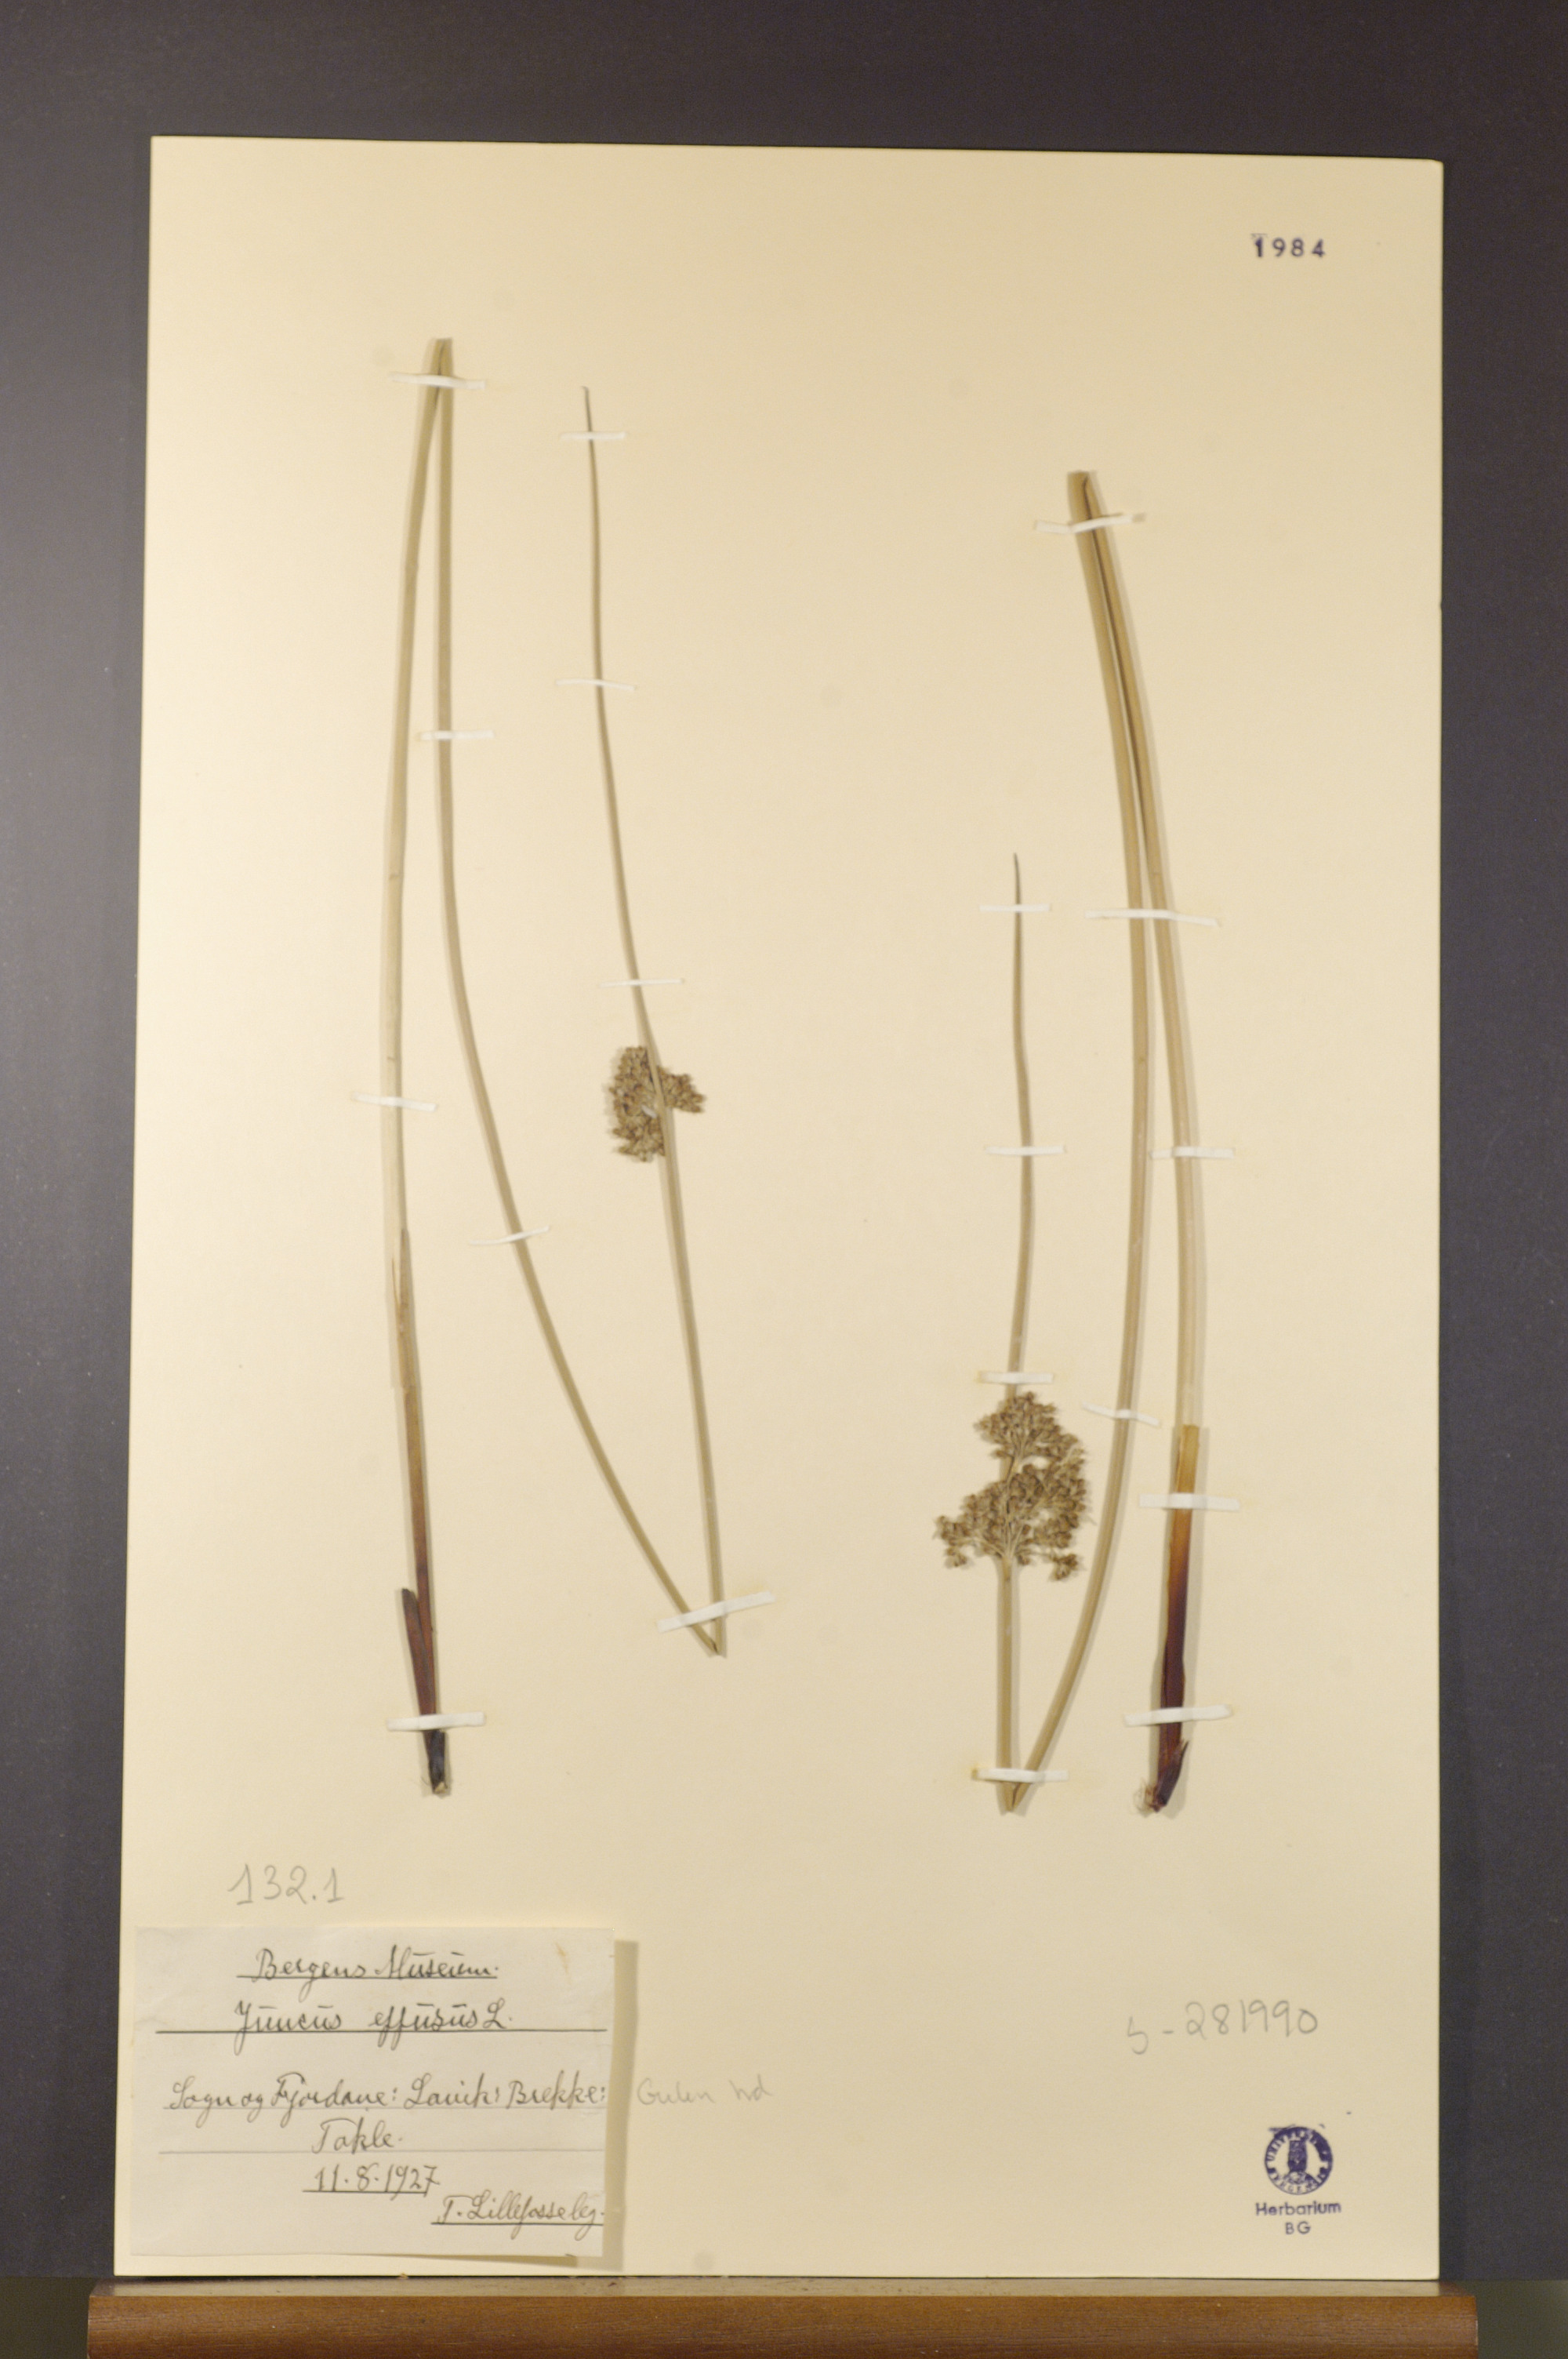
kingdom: Plantae
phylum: Tracheophyta
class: Liliopsida
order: Poales
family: Juncaceae
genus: Juncus
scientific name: Juncus effusus
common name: Soft rush
